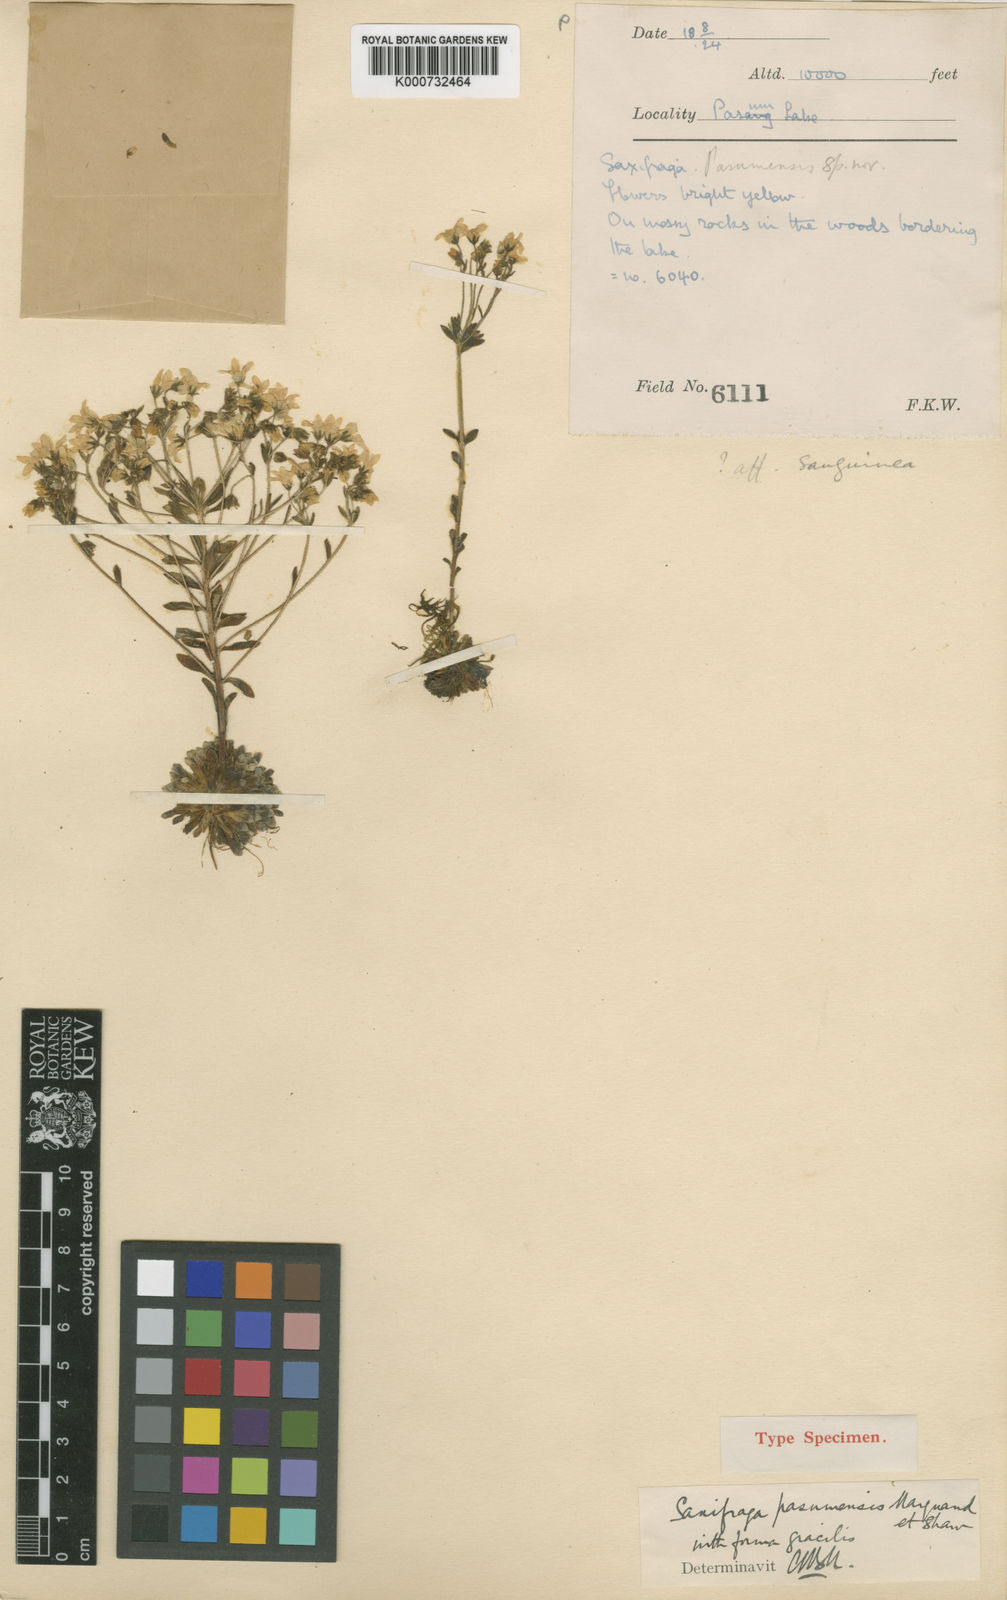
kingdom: Plantae
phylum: Tracheophyta
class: Magnoliopsida
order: Saxifragales
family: Saxifragaceae
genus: Saxifraga
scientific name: Saxifraga umbellulata
